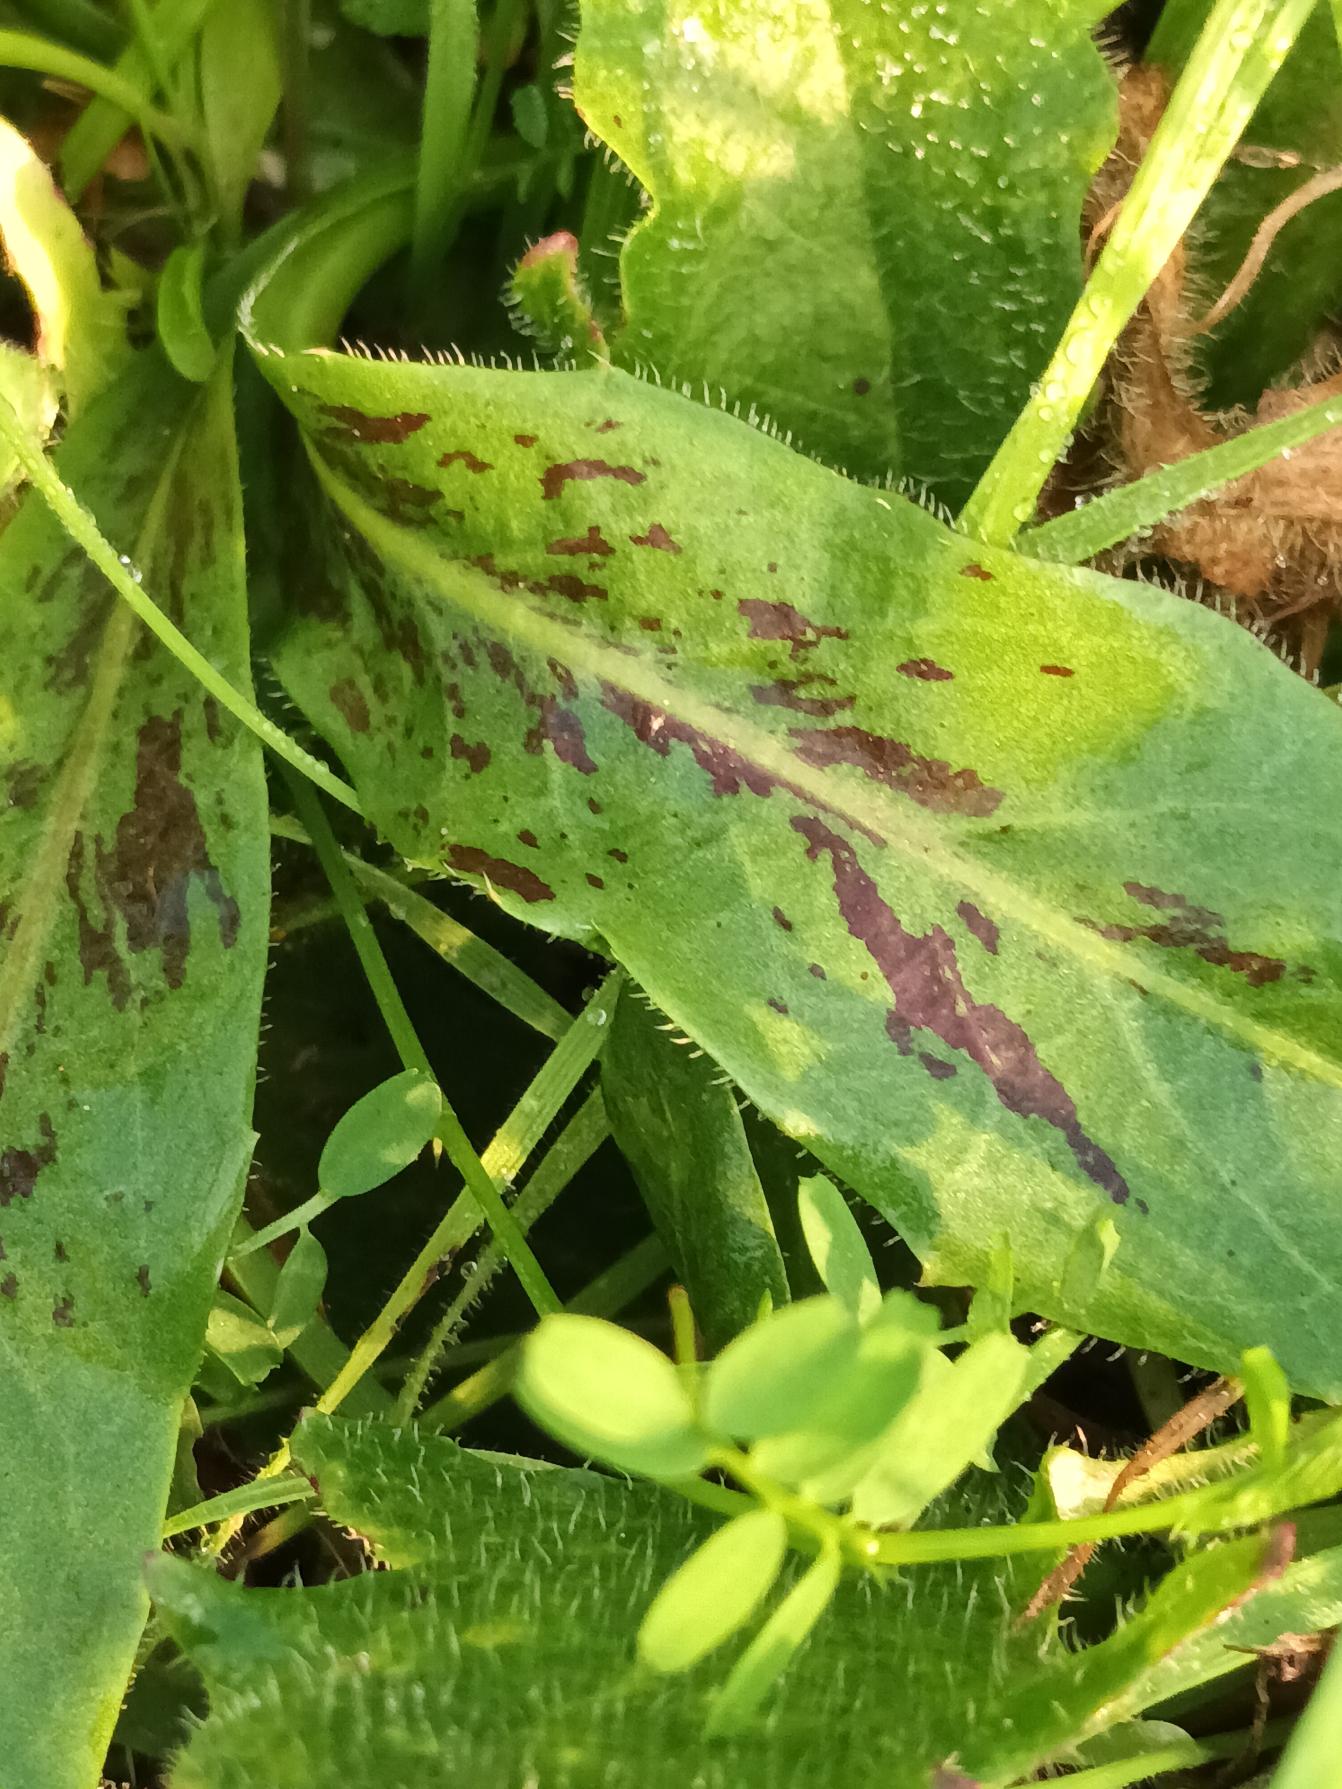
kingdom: Plantae
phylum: Tracheophyta
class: Magnoliopsida
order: Asterales
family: Asteraceae
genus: Trommsdorffia
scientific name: Trommsdorffia maculata
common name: Plettet kongepen
